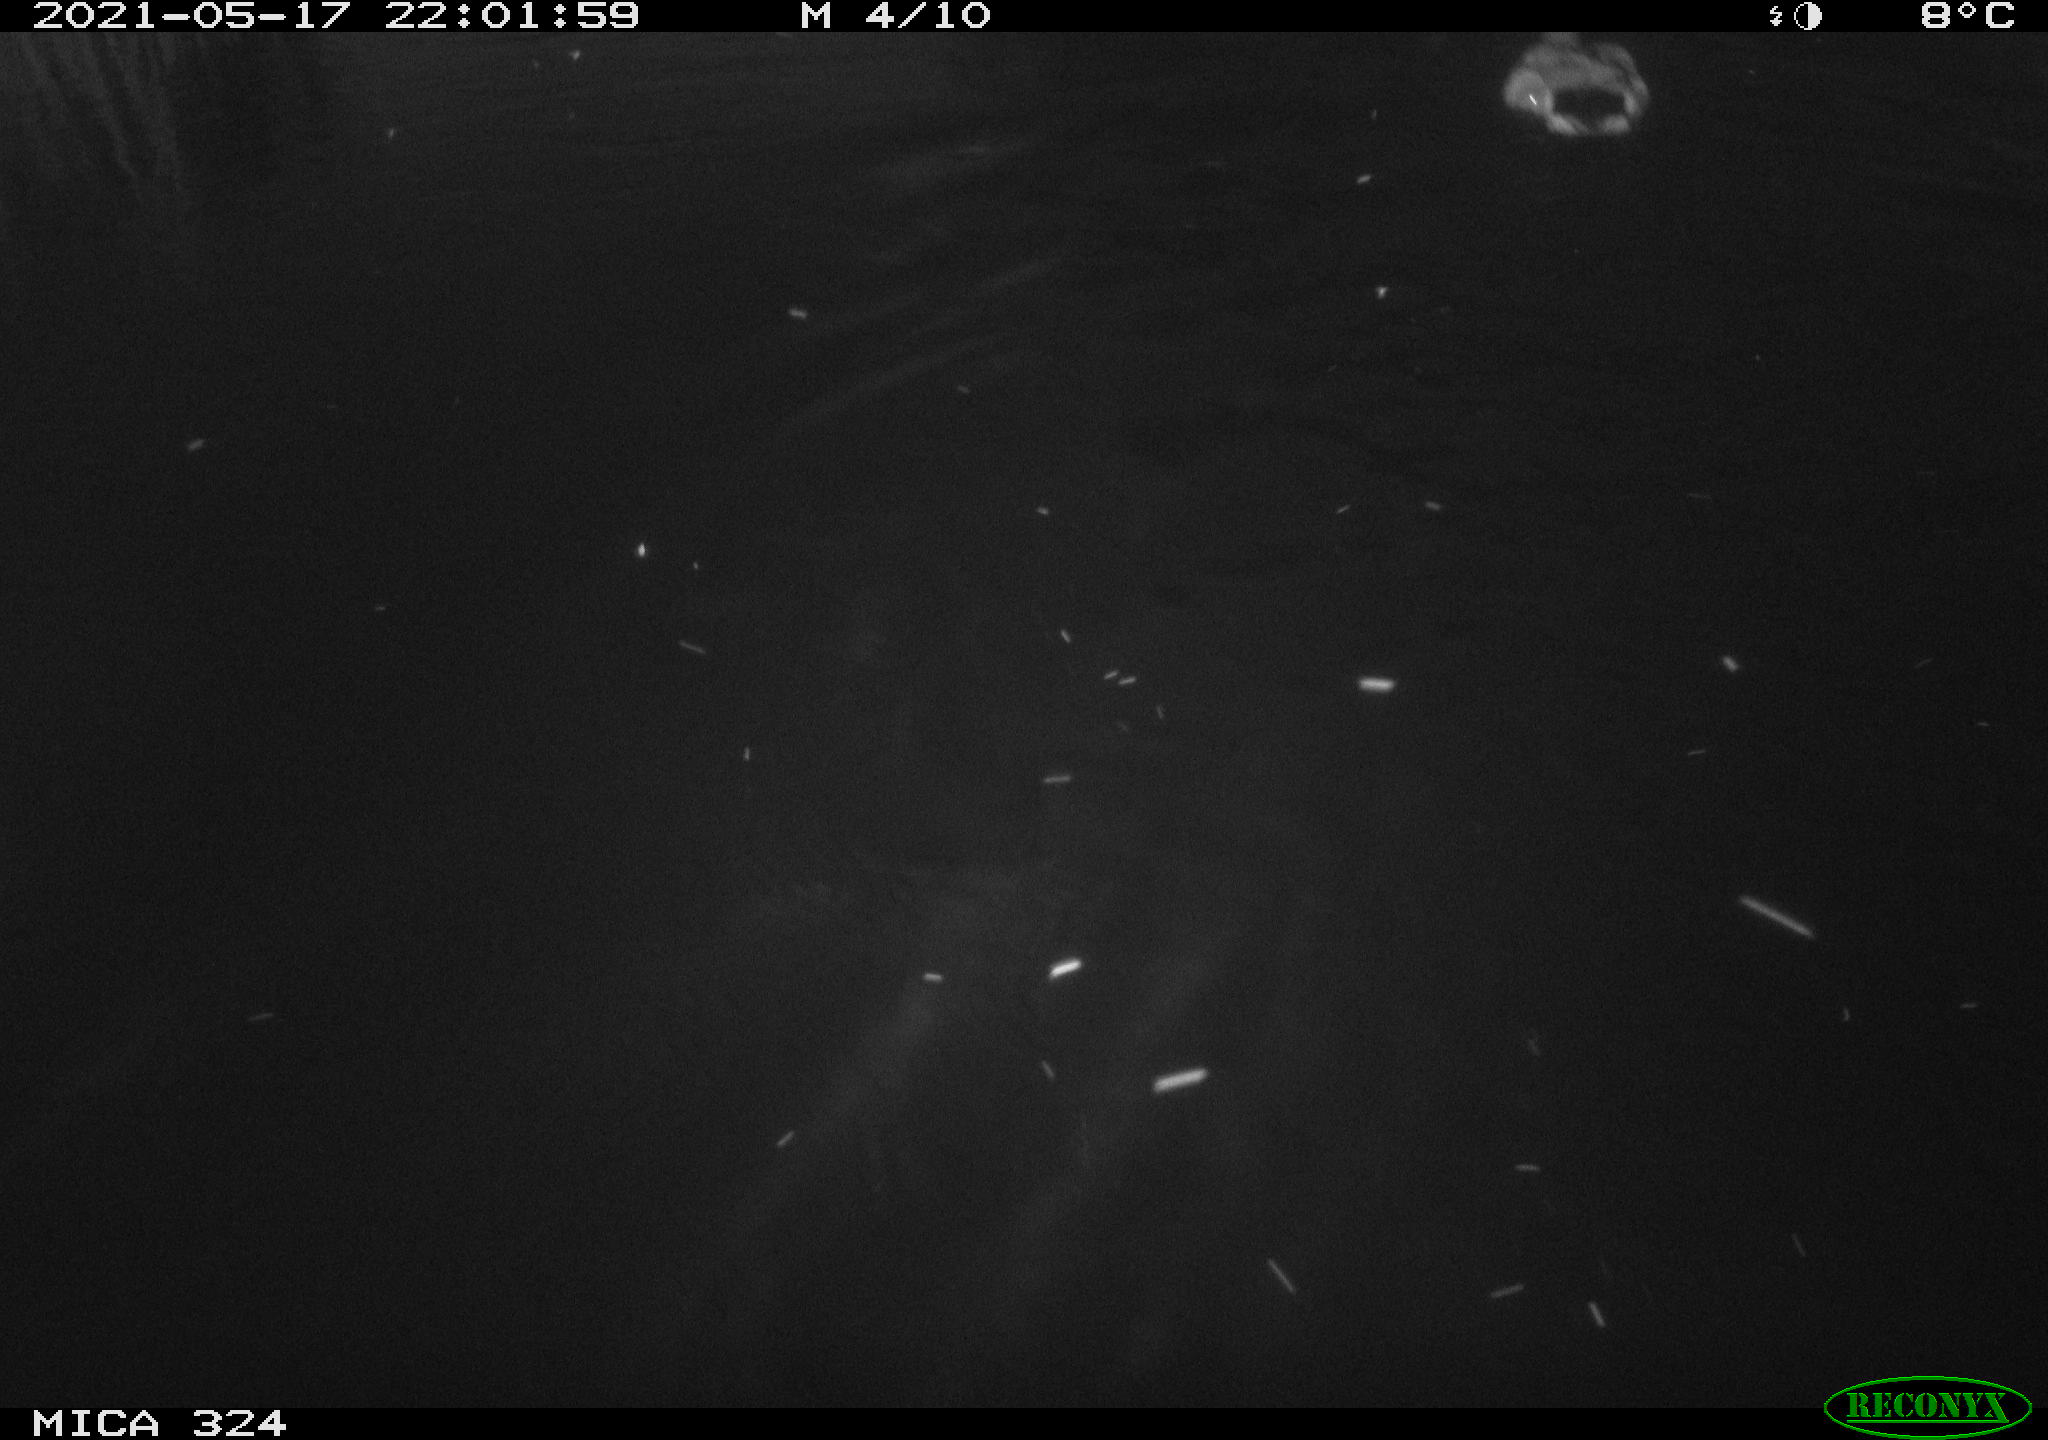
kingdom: Animalia
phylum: Chordata
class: Aves
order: Anseriformes
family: Anatidae
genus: Anas
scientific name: Anas platyrhynchos
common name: Mallard
